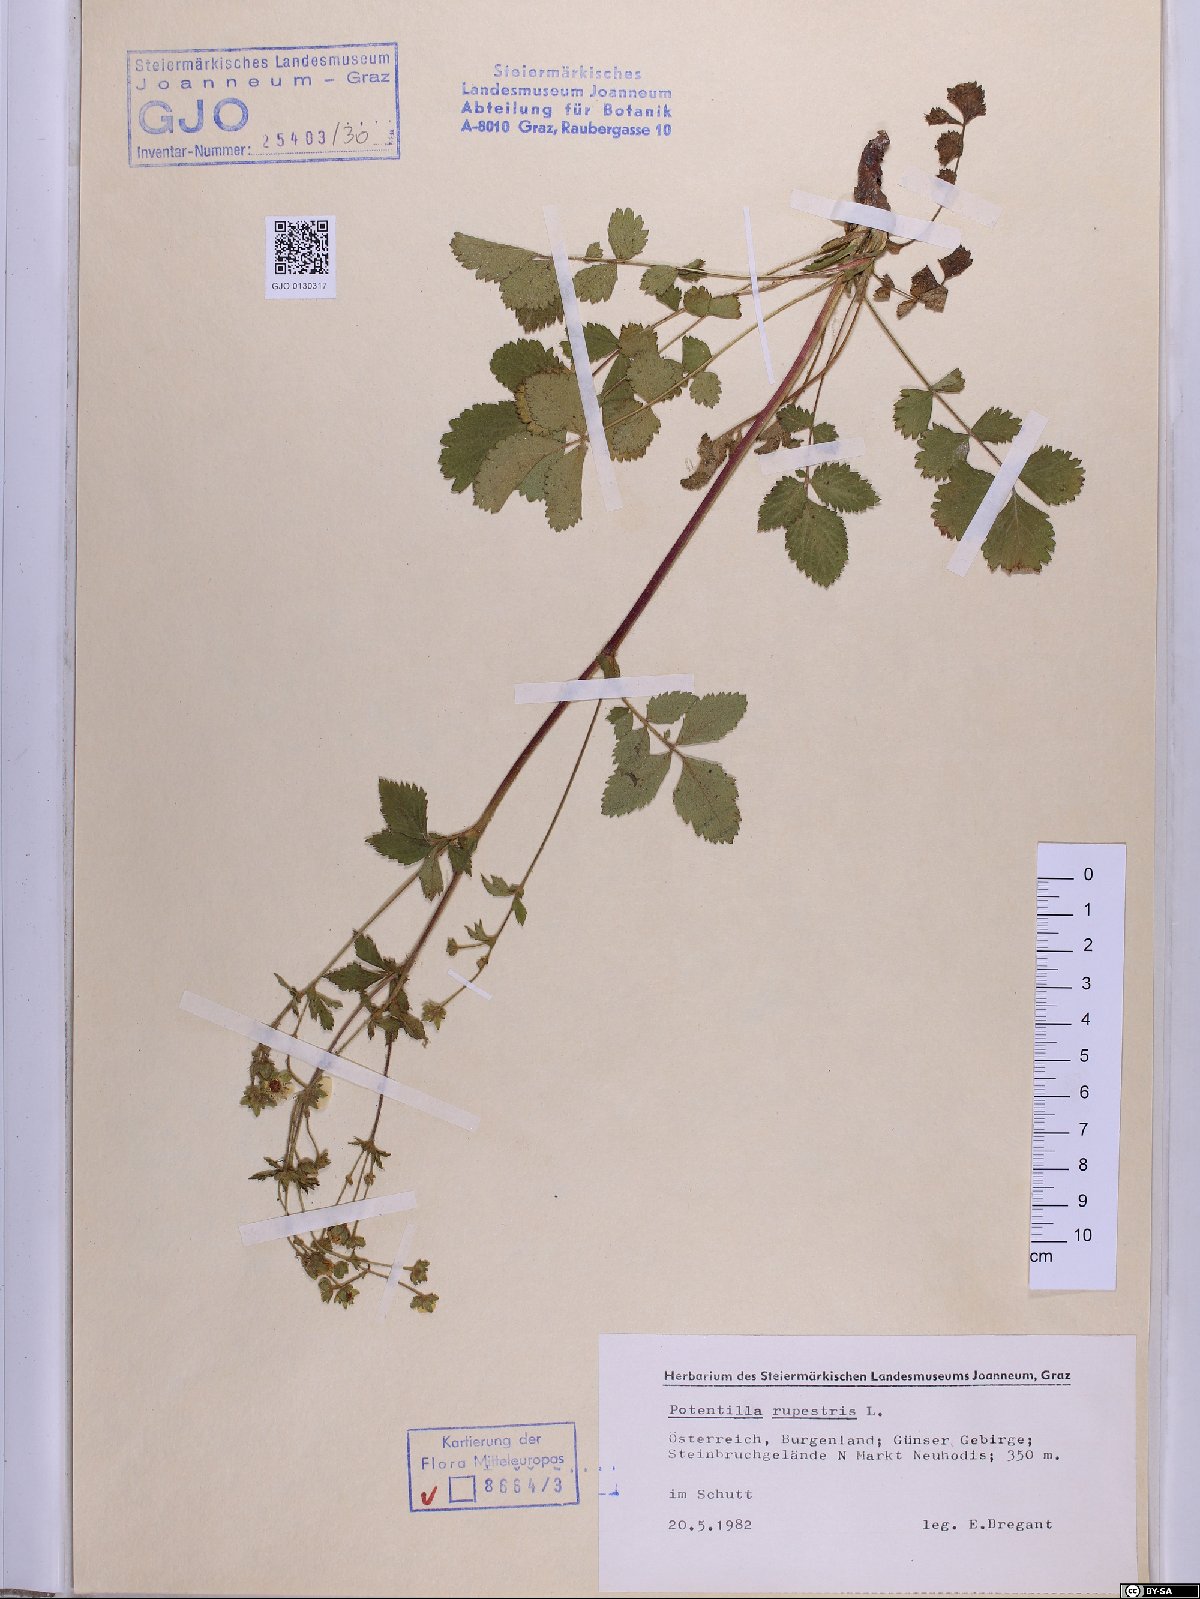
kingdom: Plantae
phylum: Tracheophyta
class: Magnoliopsida
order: Rosales
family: Rosaceae
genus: Drymocallis
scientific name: Drymocallis rupestris
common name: Rock cinquefoil
